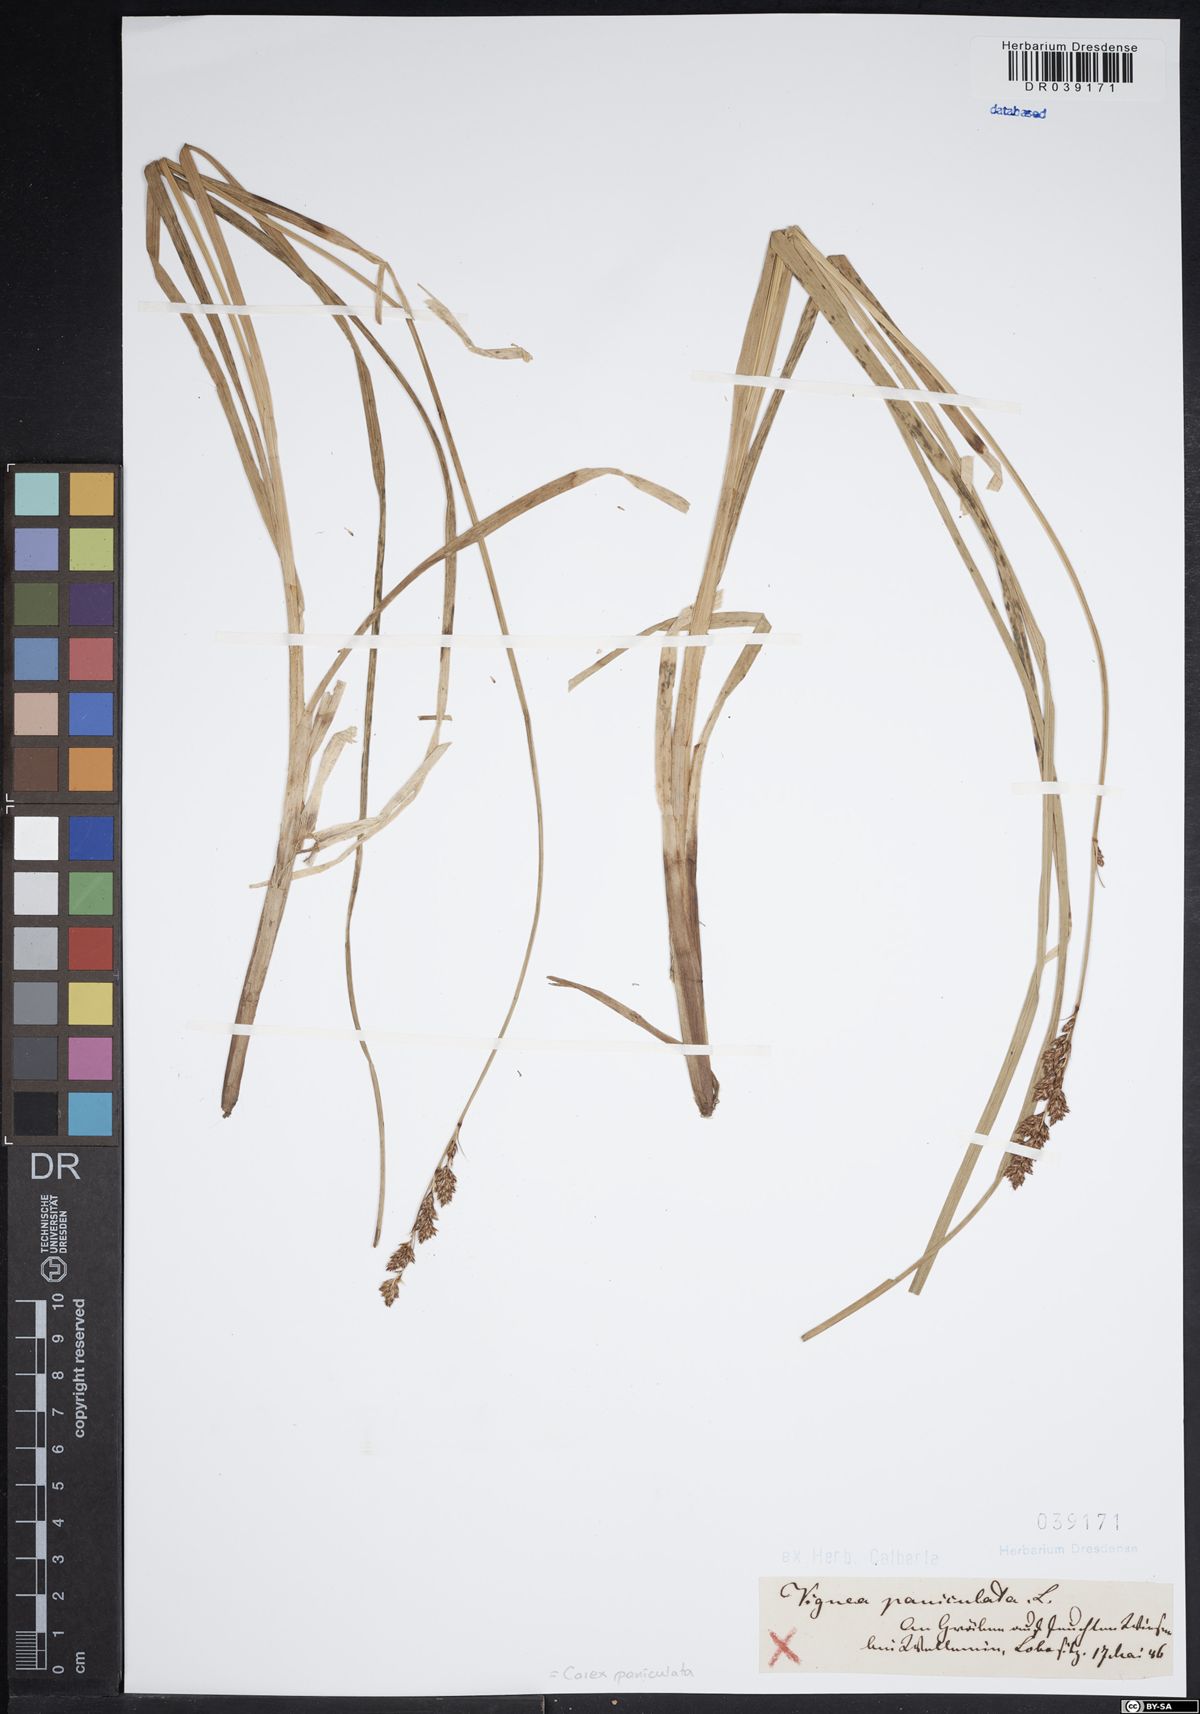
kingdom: Plantae
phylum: Tracheophyta
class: Liliopsida
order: Poales
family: Cyperaceae
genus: Carex
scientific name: Carex paniculata
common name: Greater tussock-sedge
